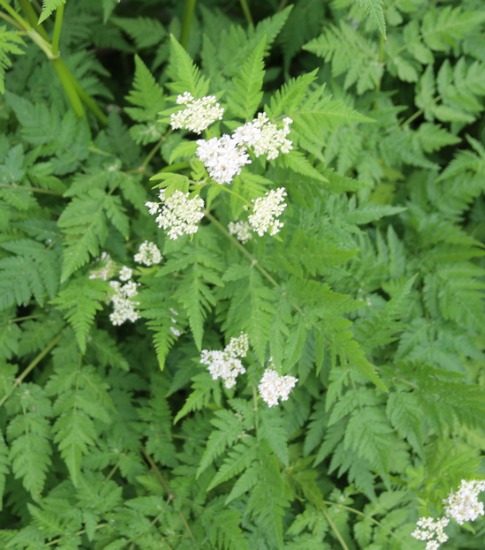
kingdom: Plantae
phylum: Tracheophyta
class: Magnoliopsida
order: Apiales
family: Apiaceae
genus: Myrrhis
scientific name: Myrrhis odorata
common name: Sødskærm
